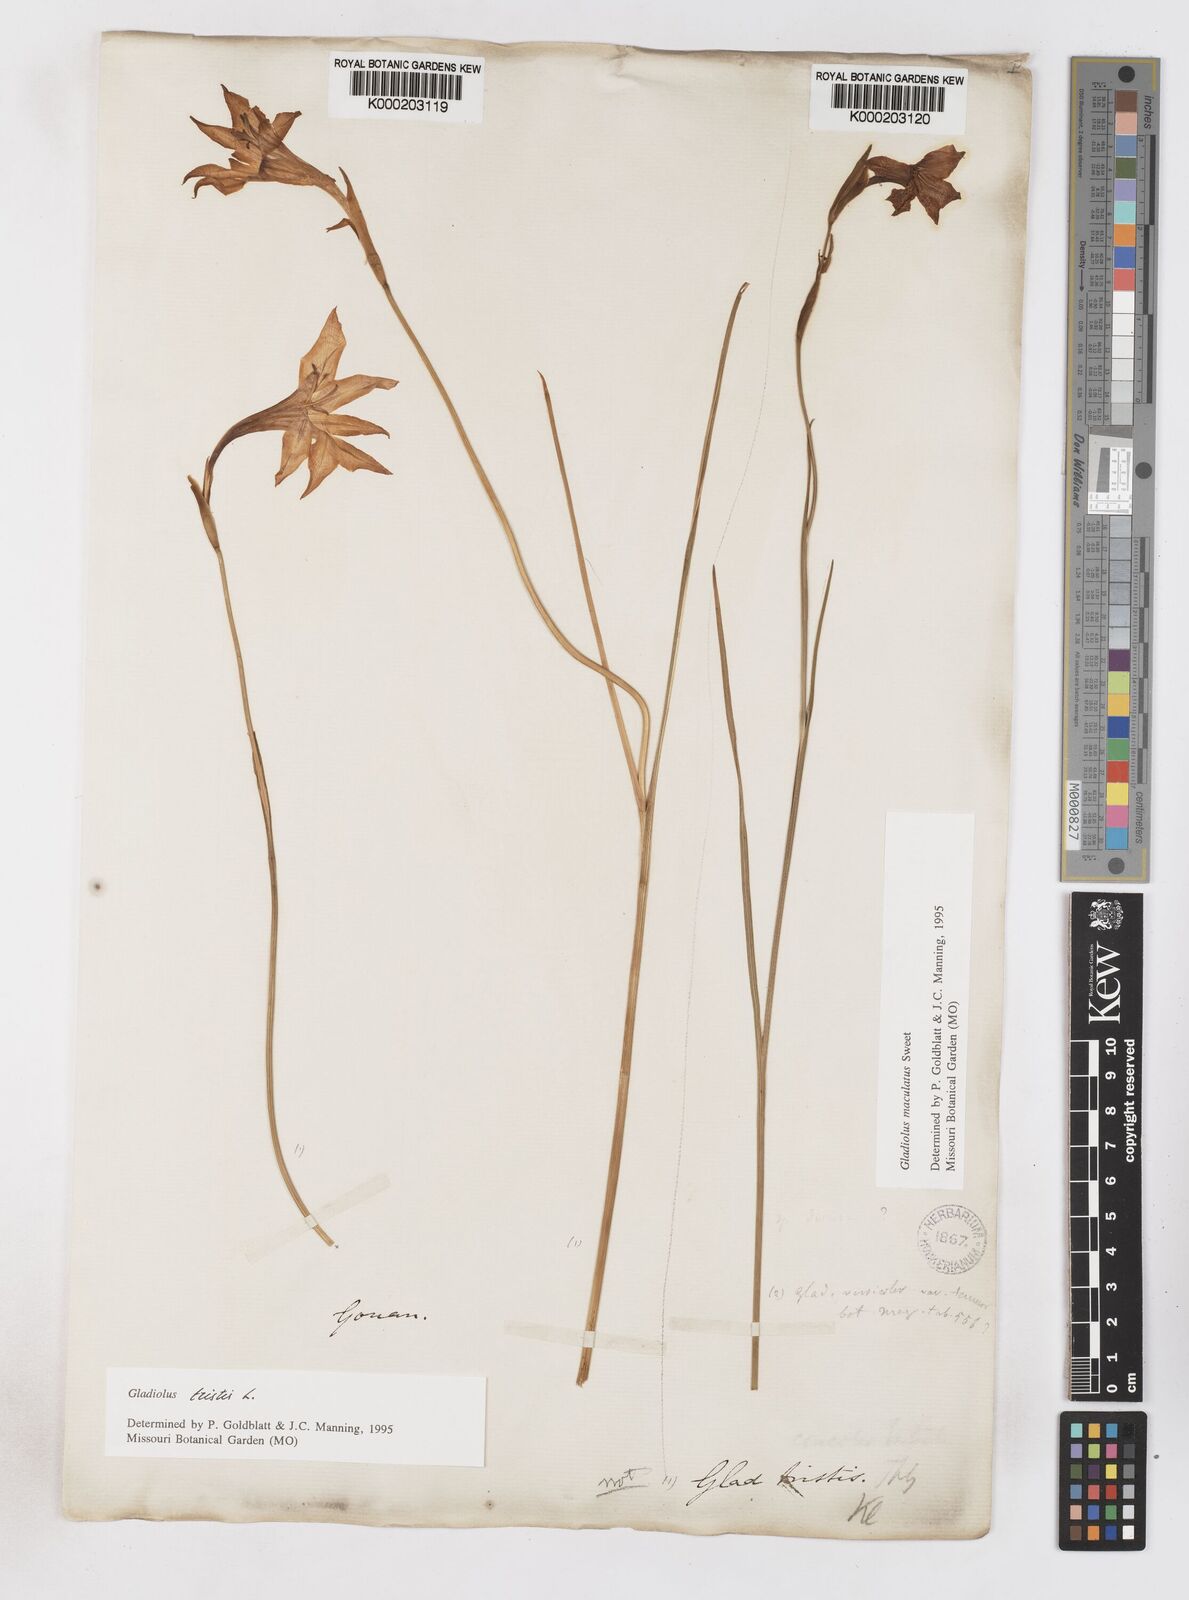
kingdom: Plantae
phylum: Tracheophyta
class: Liliopsida
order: Asparagales
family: Iridaceae
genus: Gladiolus
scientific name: Gladiolus tristis
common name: Ever-flowering gladiolus
